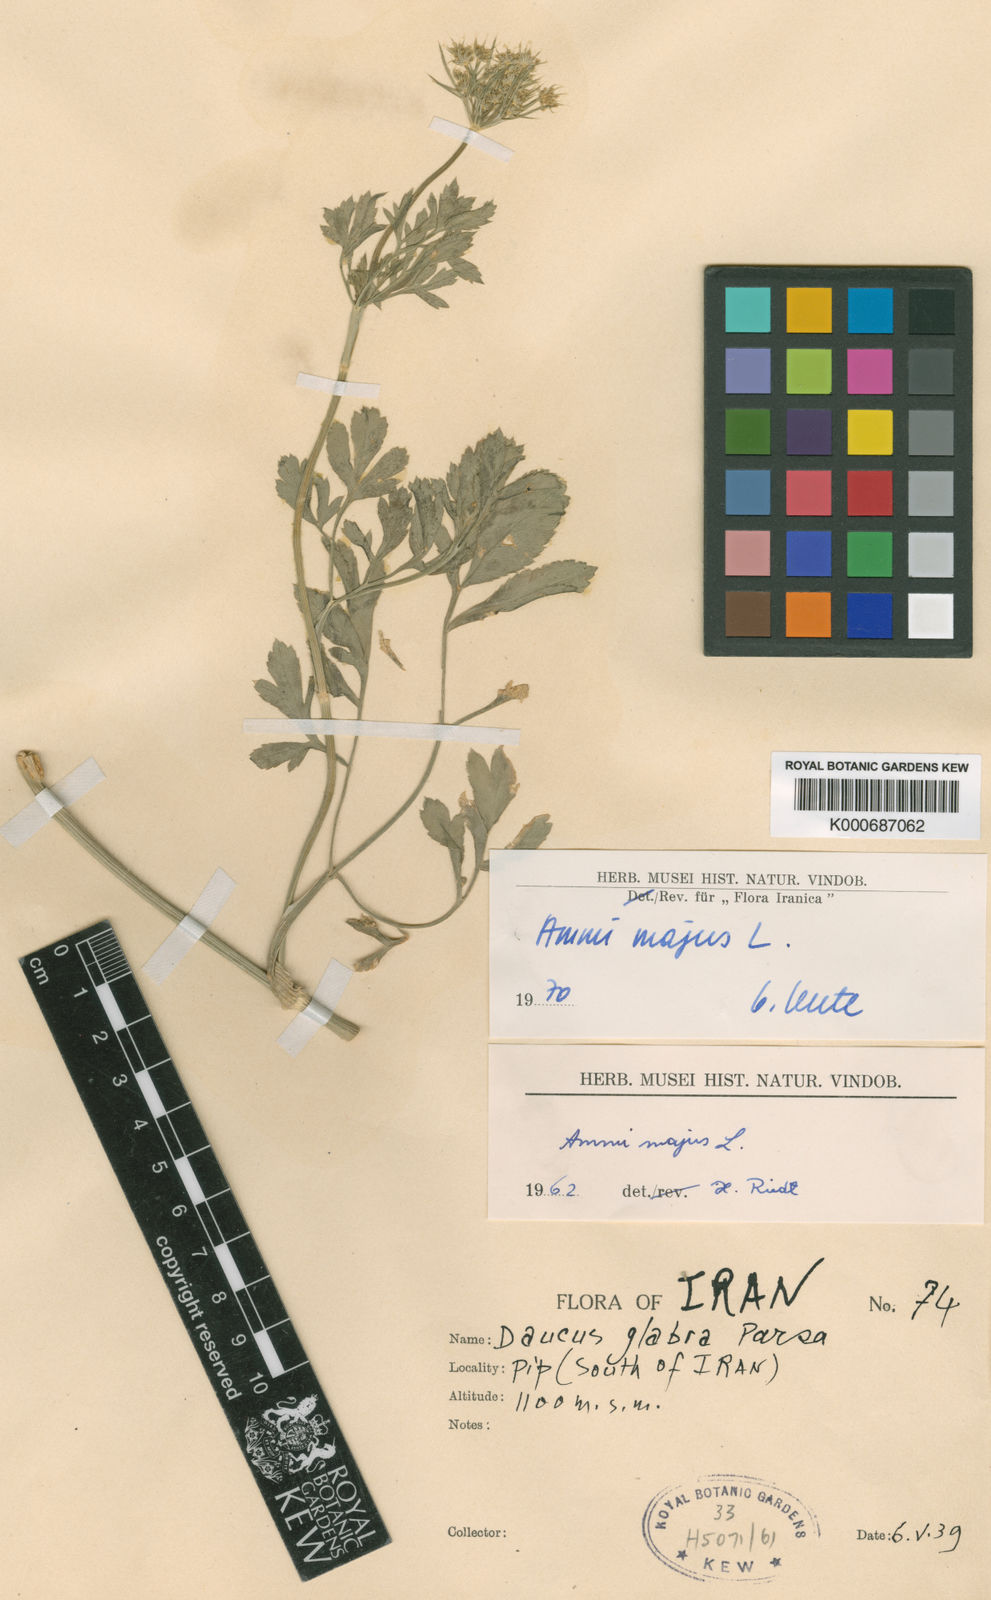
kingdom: Plantae
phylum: Tracheophyta
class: Magnoliopsida
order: Apiales
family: Apiaceae
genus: Ammi
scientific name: Ammi majus
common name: Bullwort
